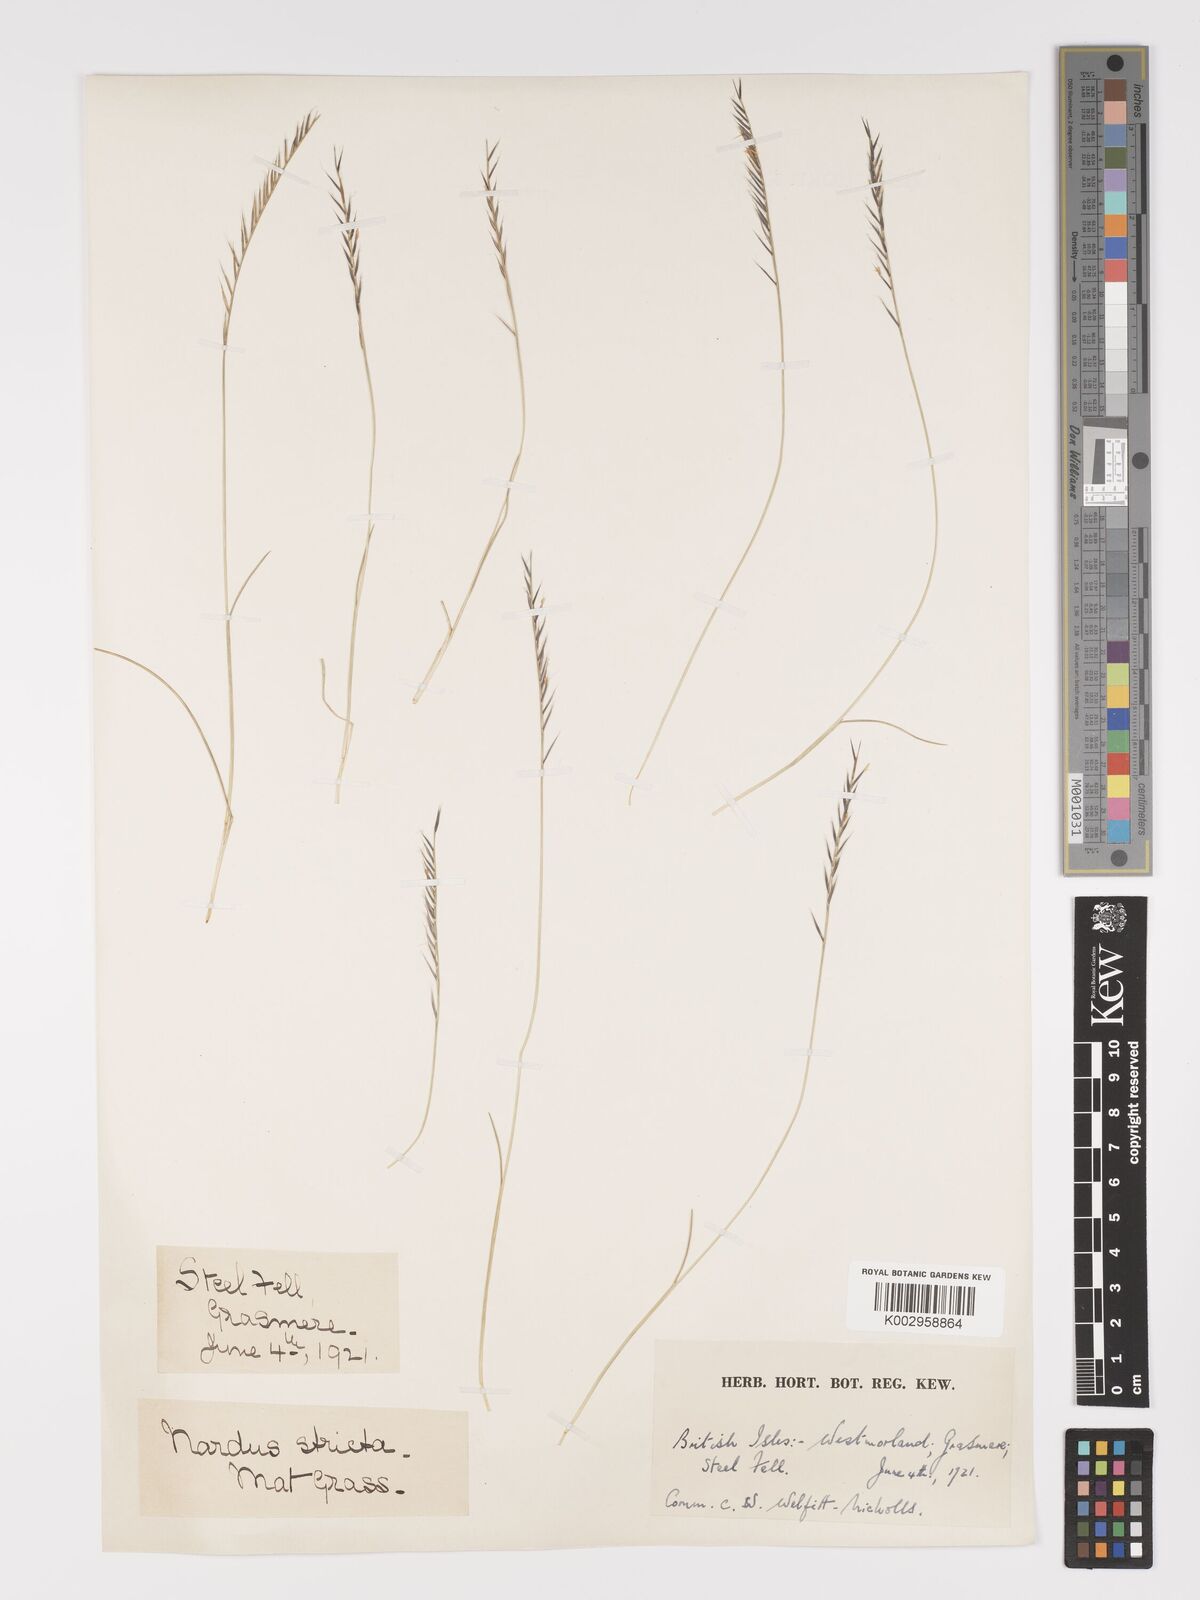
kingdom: Plantae
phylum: Tracheophyta
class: Liliopsida
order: Poales
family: Poaceae
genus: Nardus
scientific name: Nardus stricta
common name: Mat-grass
